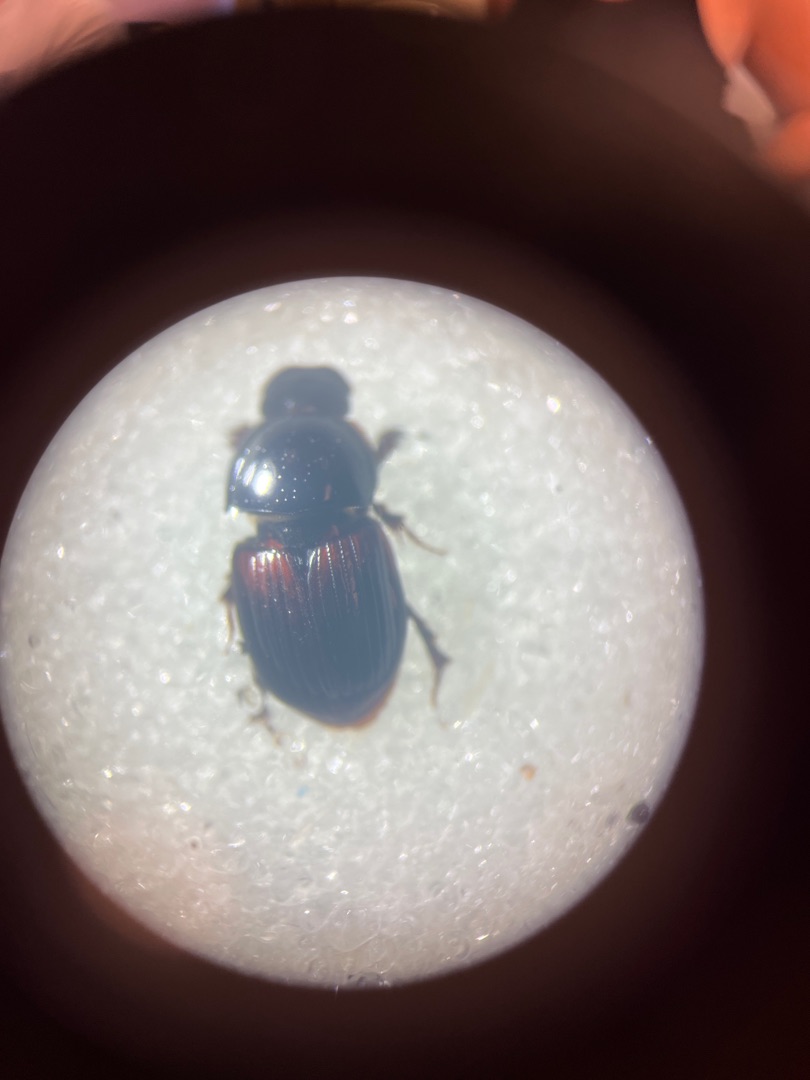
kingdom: Animalia
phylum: Arthropoda
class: Insecta
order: Coleoptera
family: Scarabaeidae
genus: Rhodaphodius
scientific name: Rhodaphodius foetens
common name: Rødbuget møgbille
